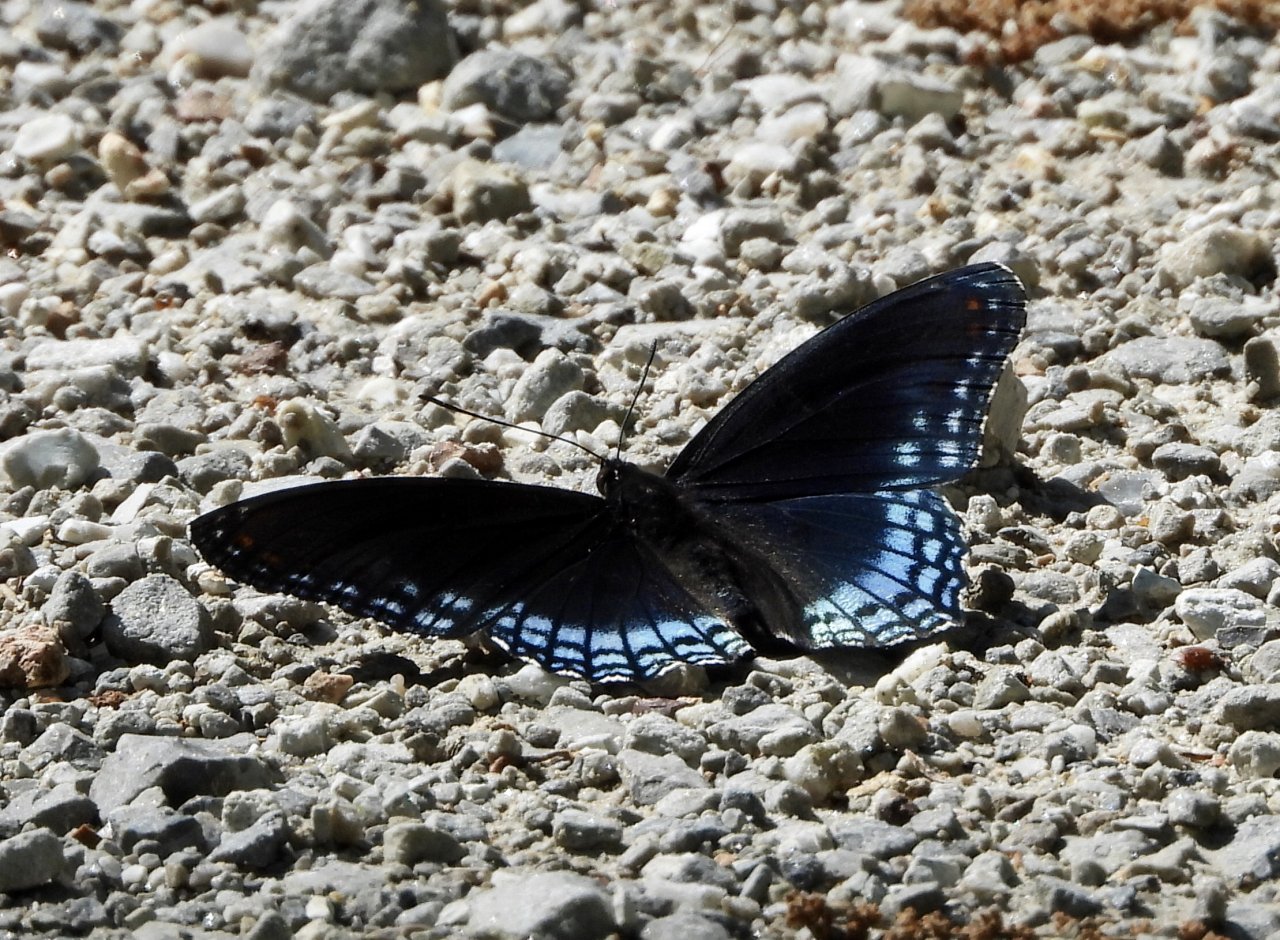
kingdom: Animalia
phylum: Arthropoda
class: Insecta
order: Lepidoptera
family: Nymphalidae
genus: Limenitis
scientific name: Limenitis arthemis
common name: Red-spotted Admiral
